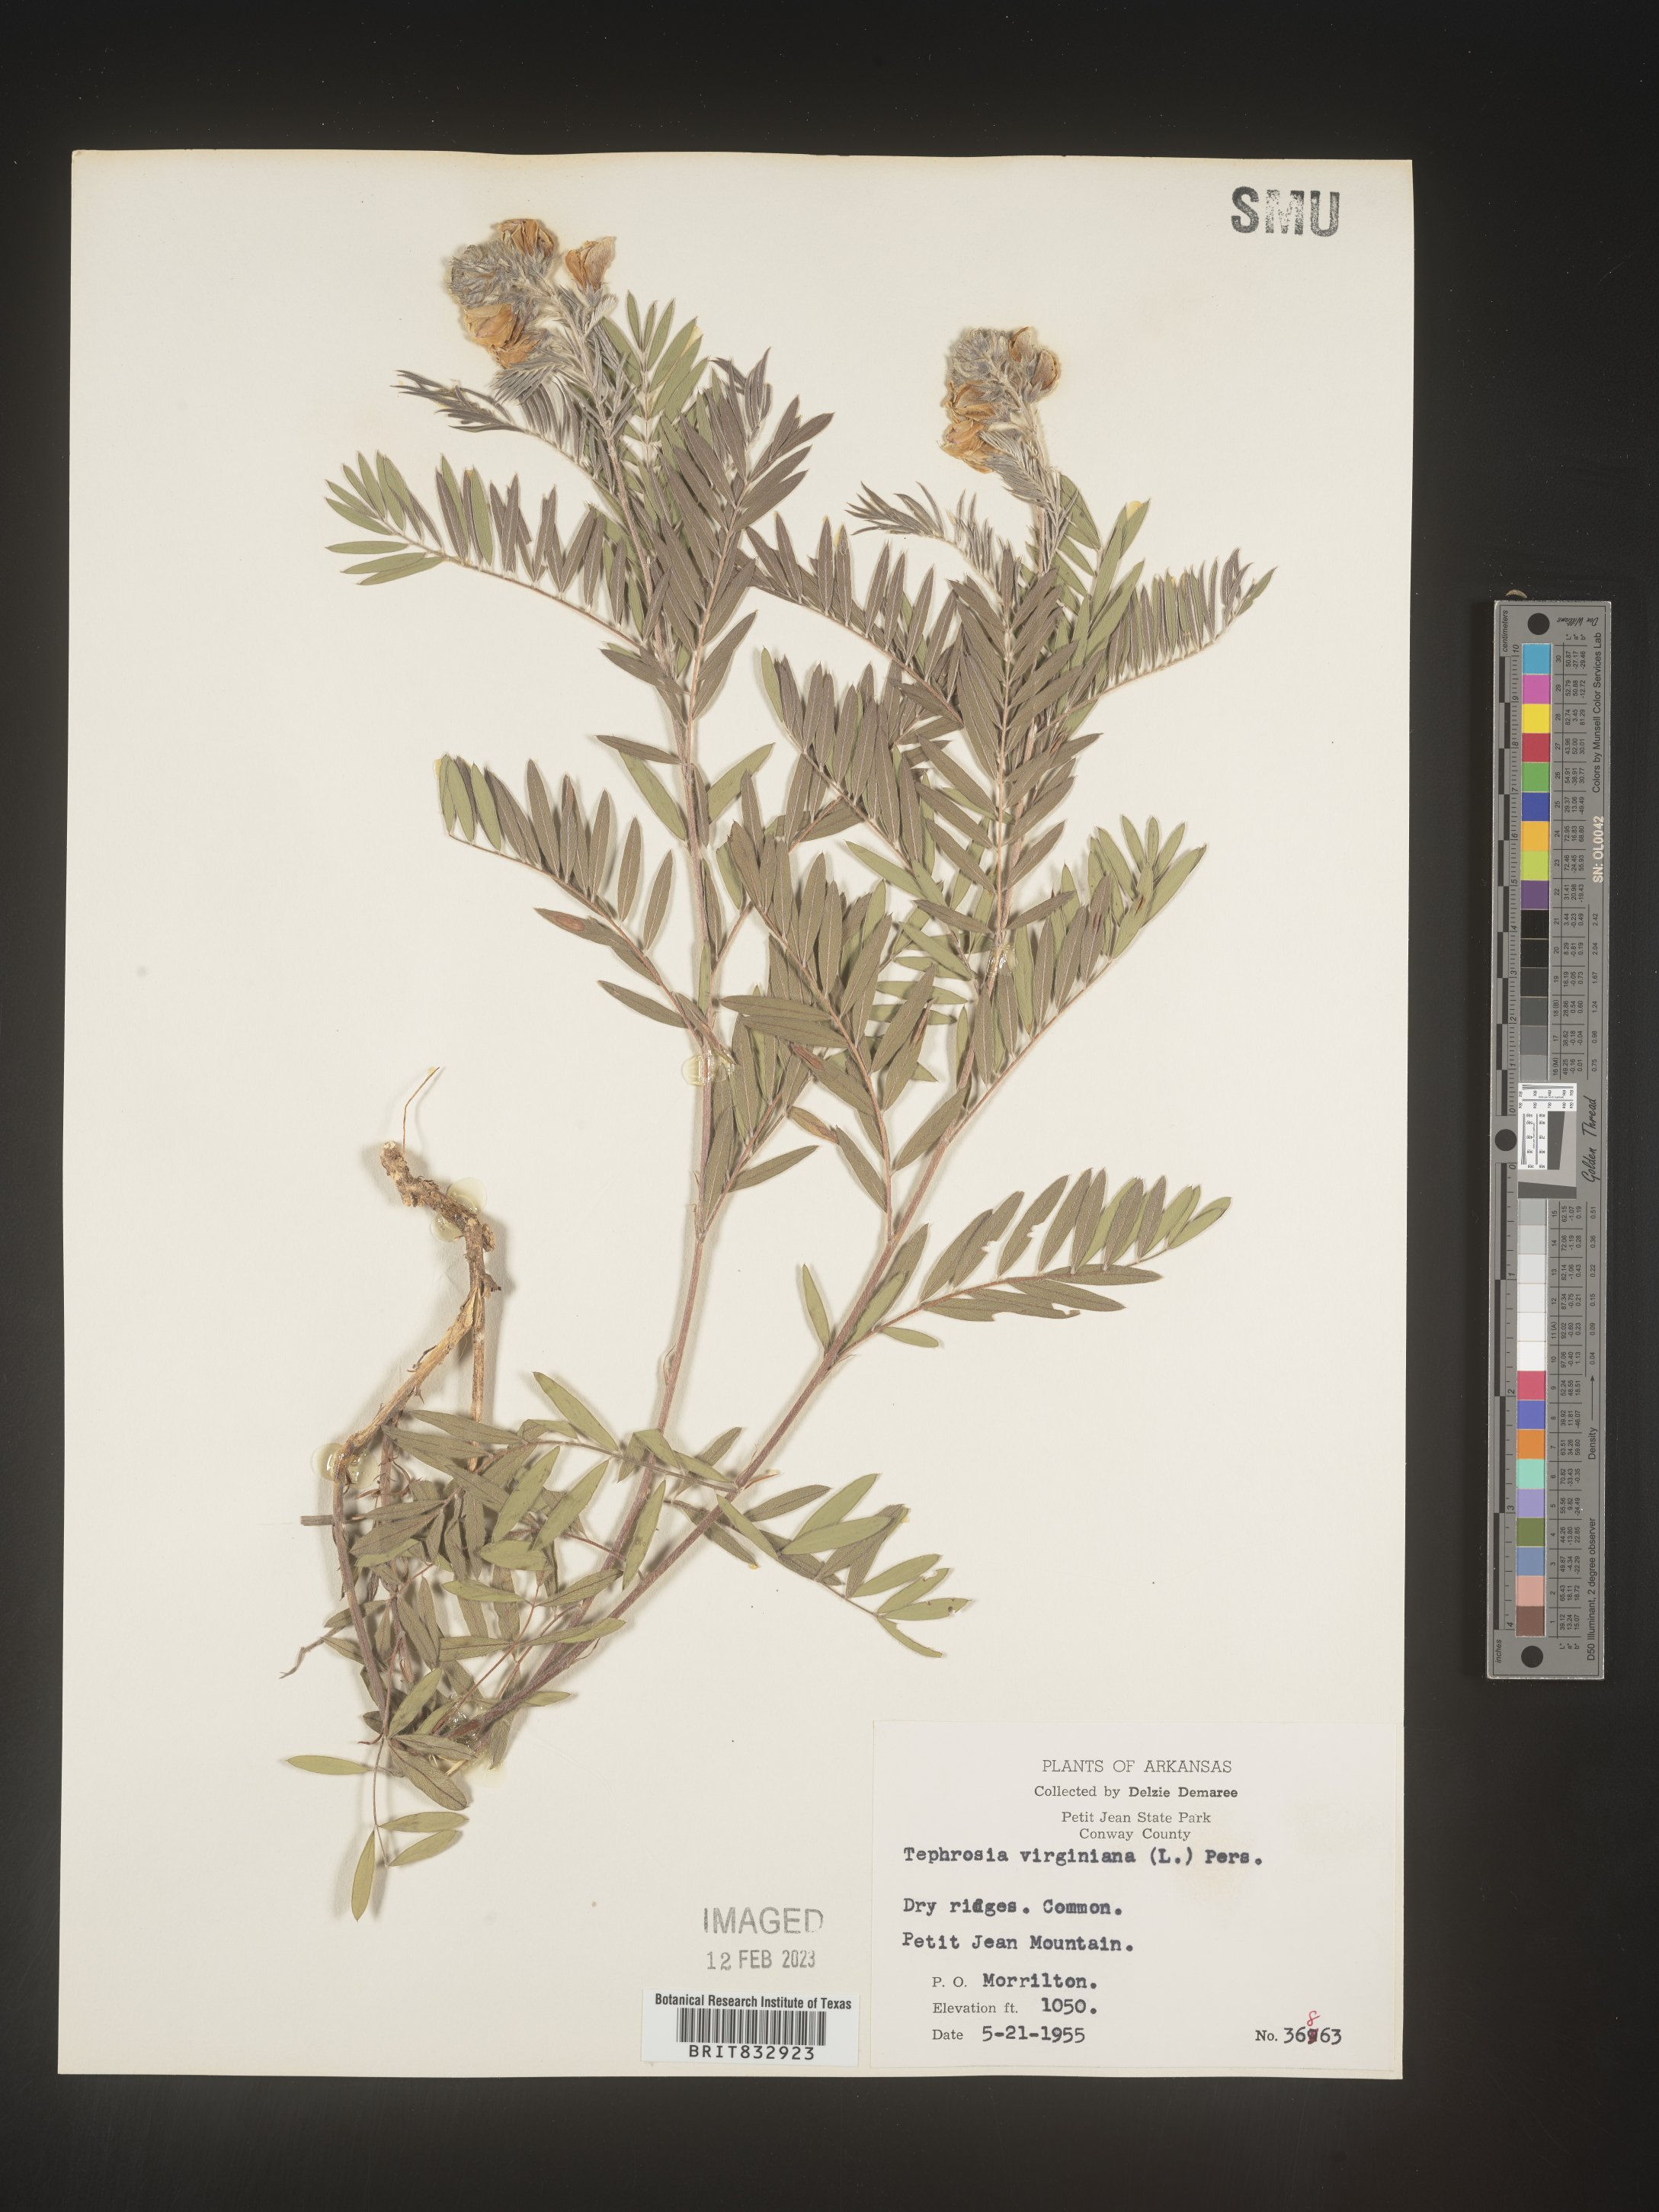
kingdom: Plantae
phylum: Tracheophyta
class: Magnoliopsida
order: Fabales
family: Fabaceae
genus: Tephrosia
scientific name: Tephrosia virginiana
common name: Rabbit-pea
